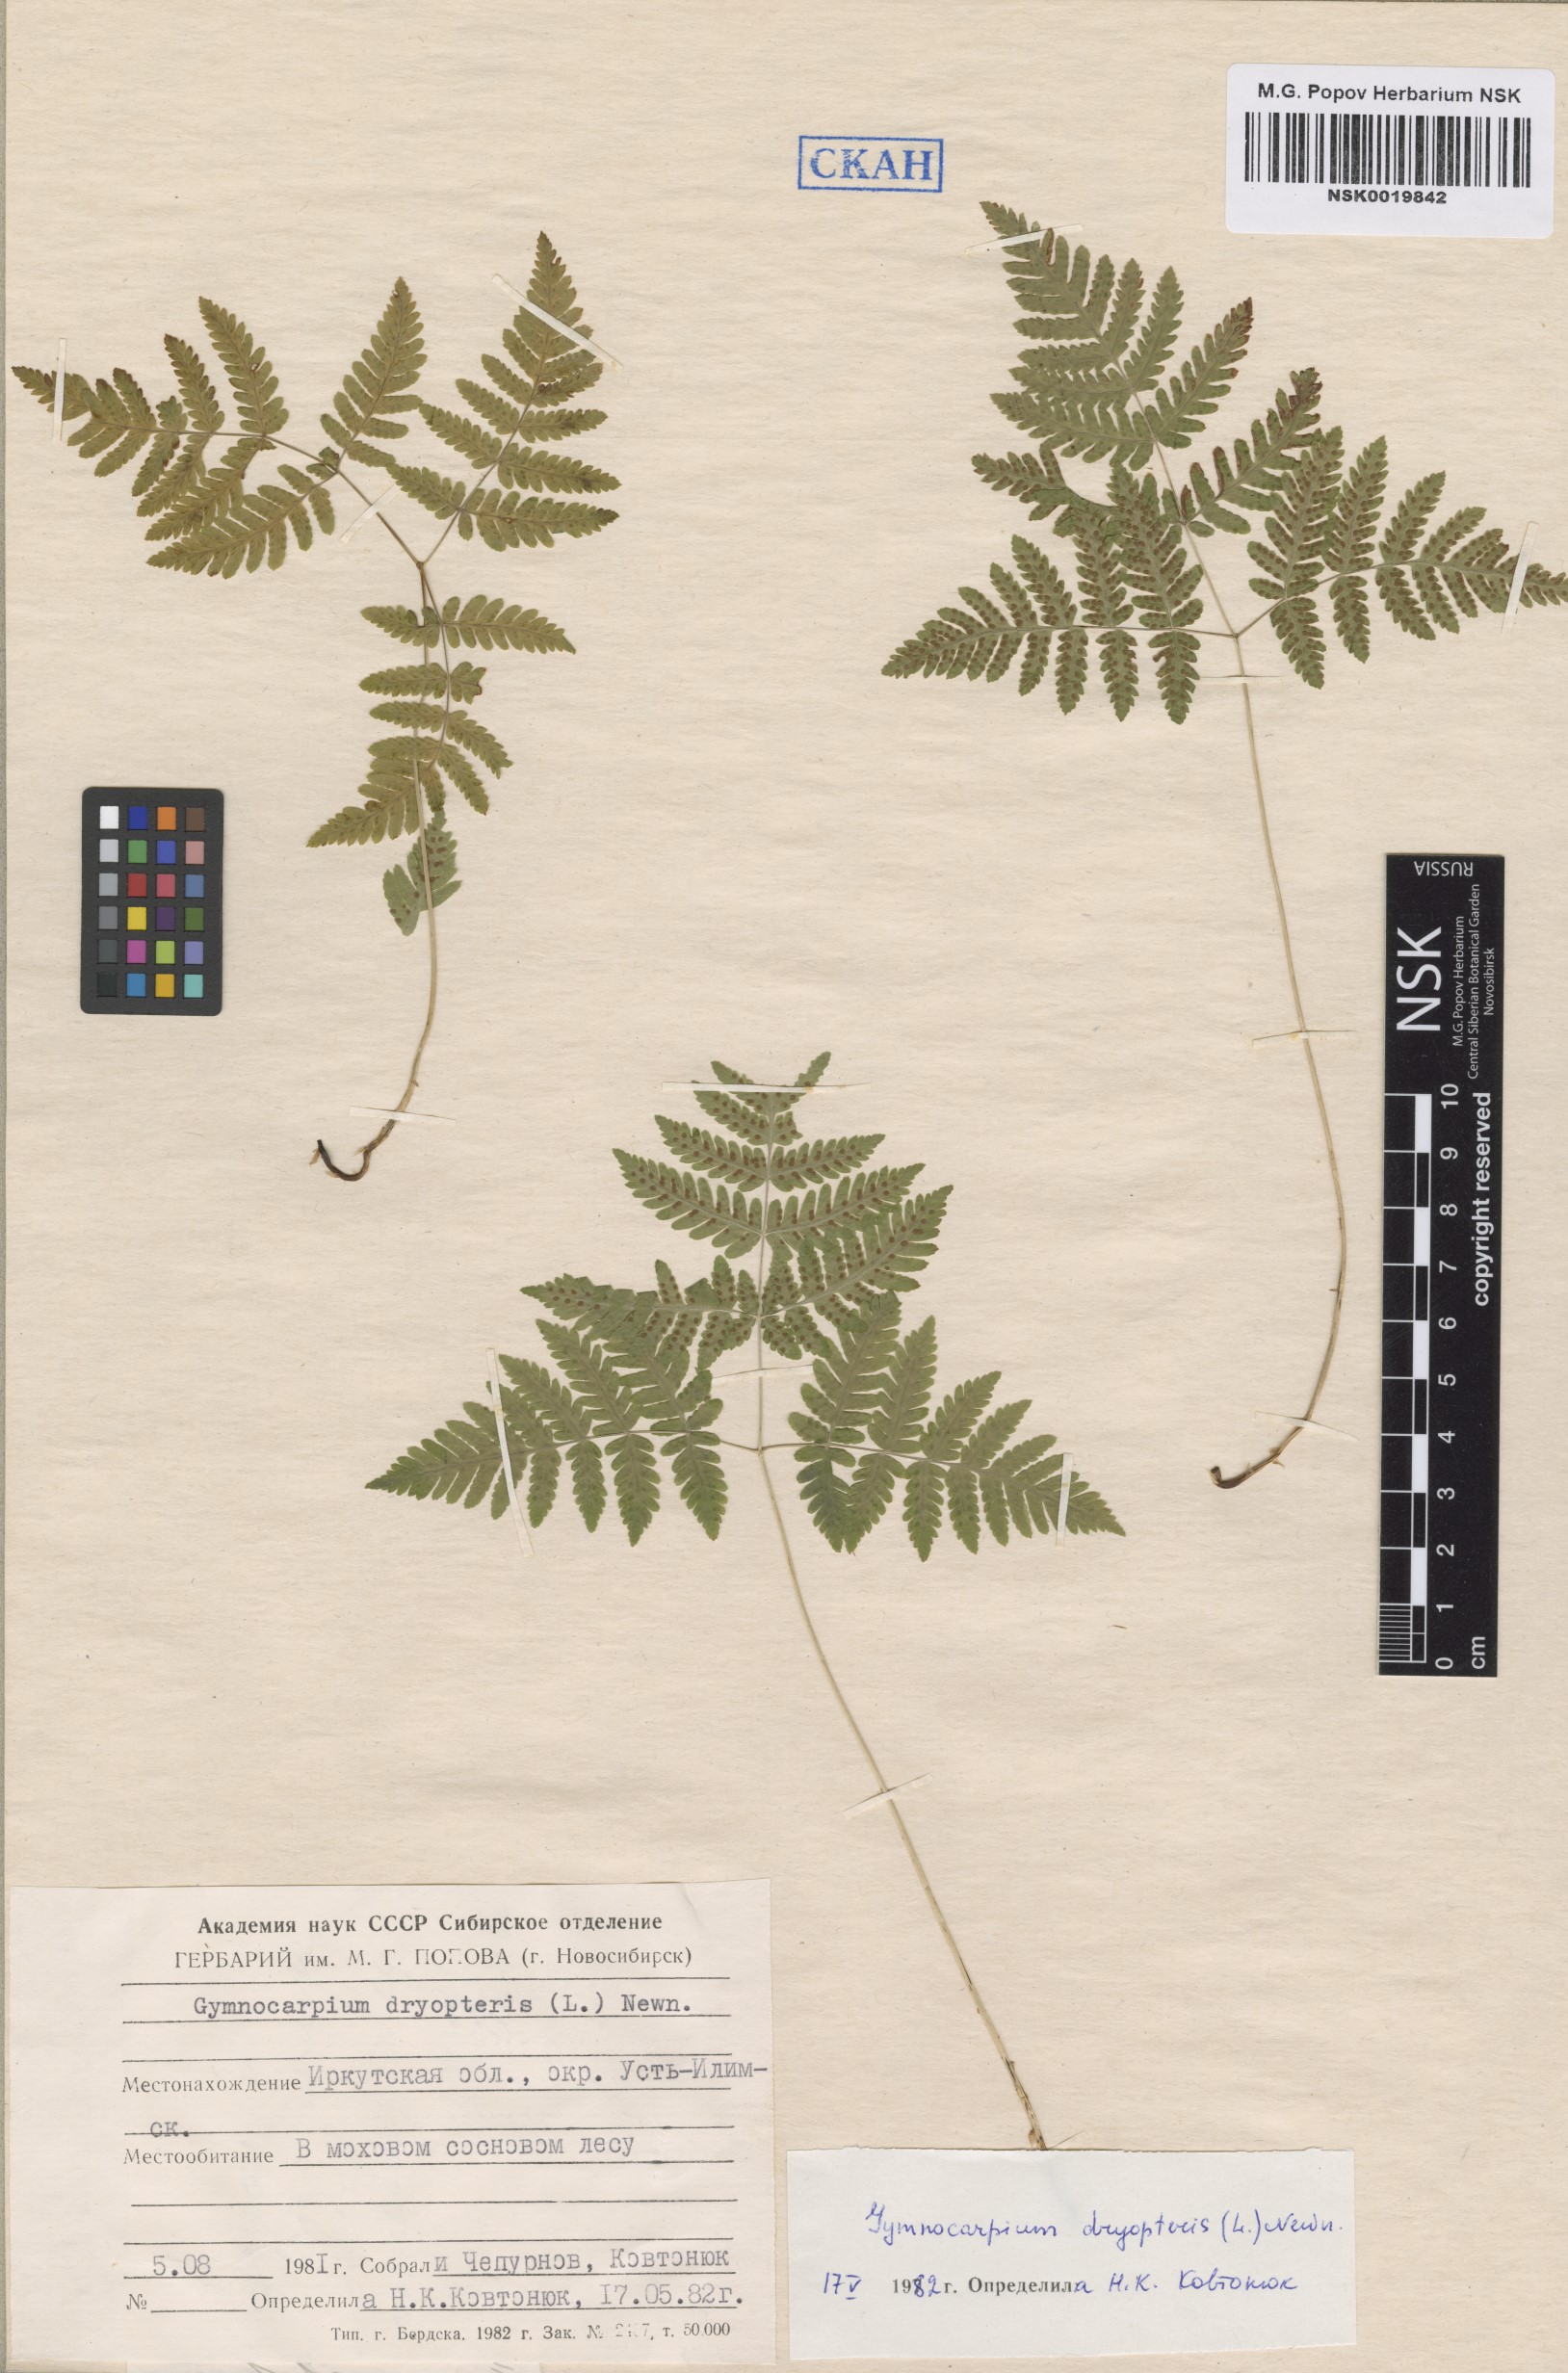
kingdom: Plantae
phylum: Tracheophyta
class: Polypodiopsida
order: Polypodiales
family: Cystopteridaceae
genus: Gymnocarpium
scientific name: Gymnocarpium dryopteris
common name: Oak fern
